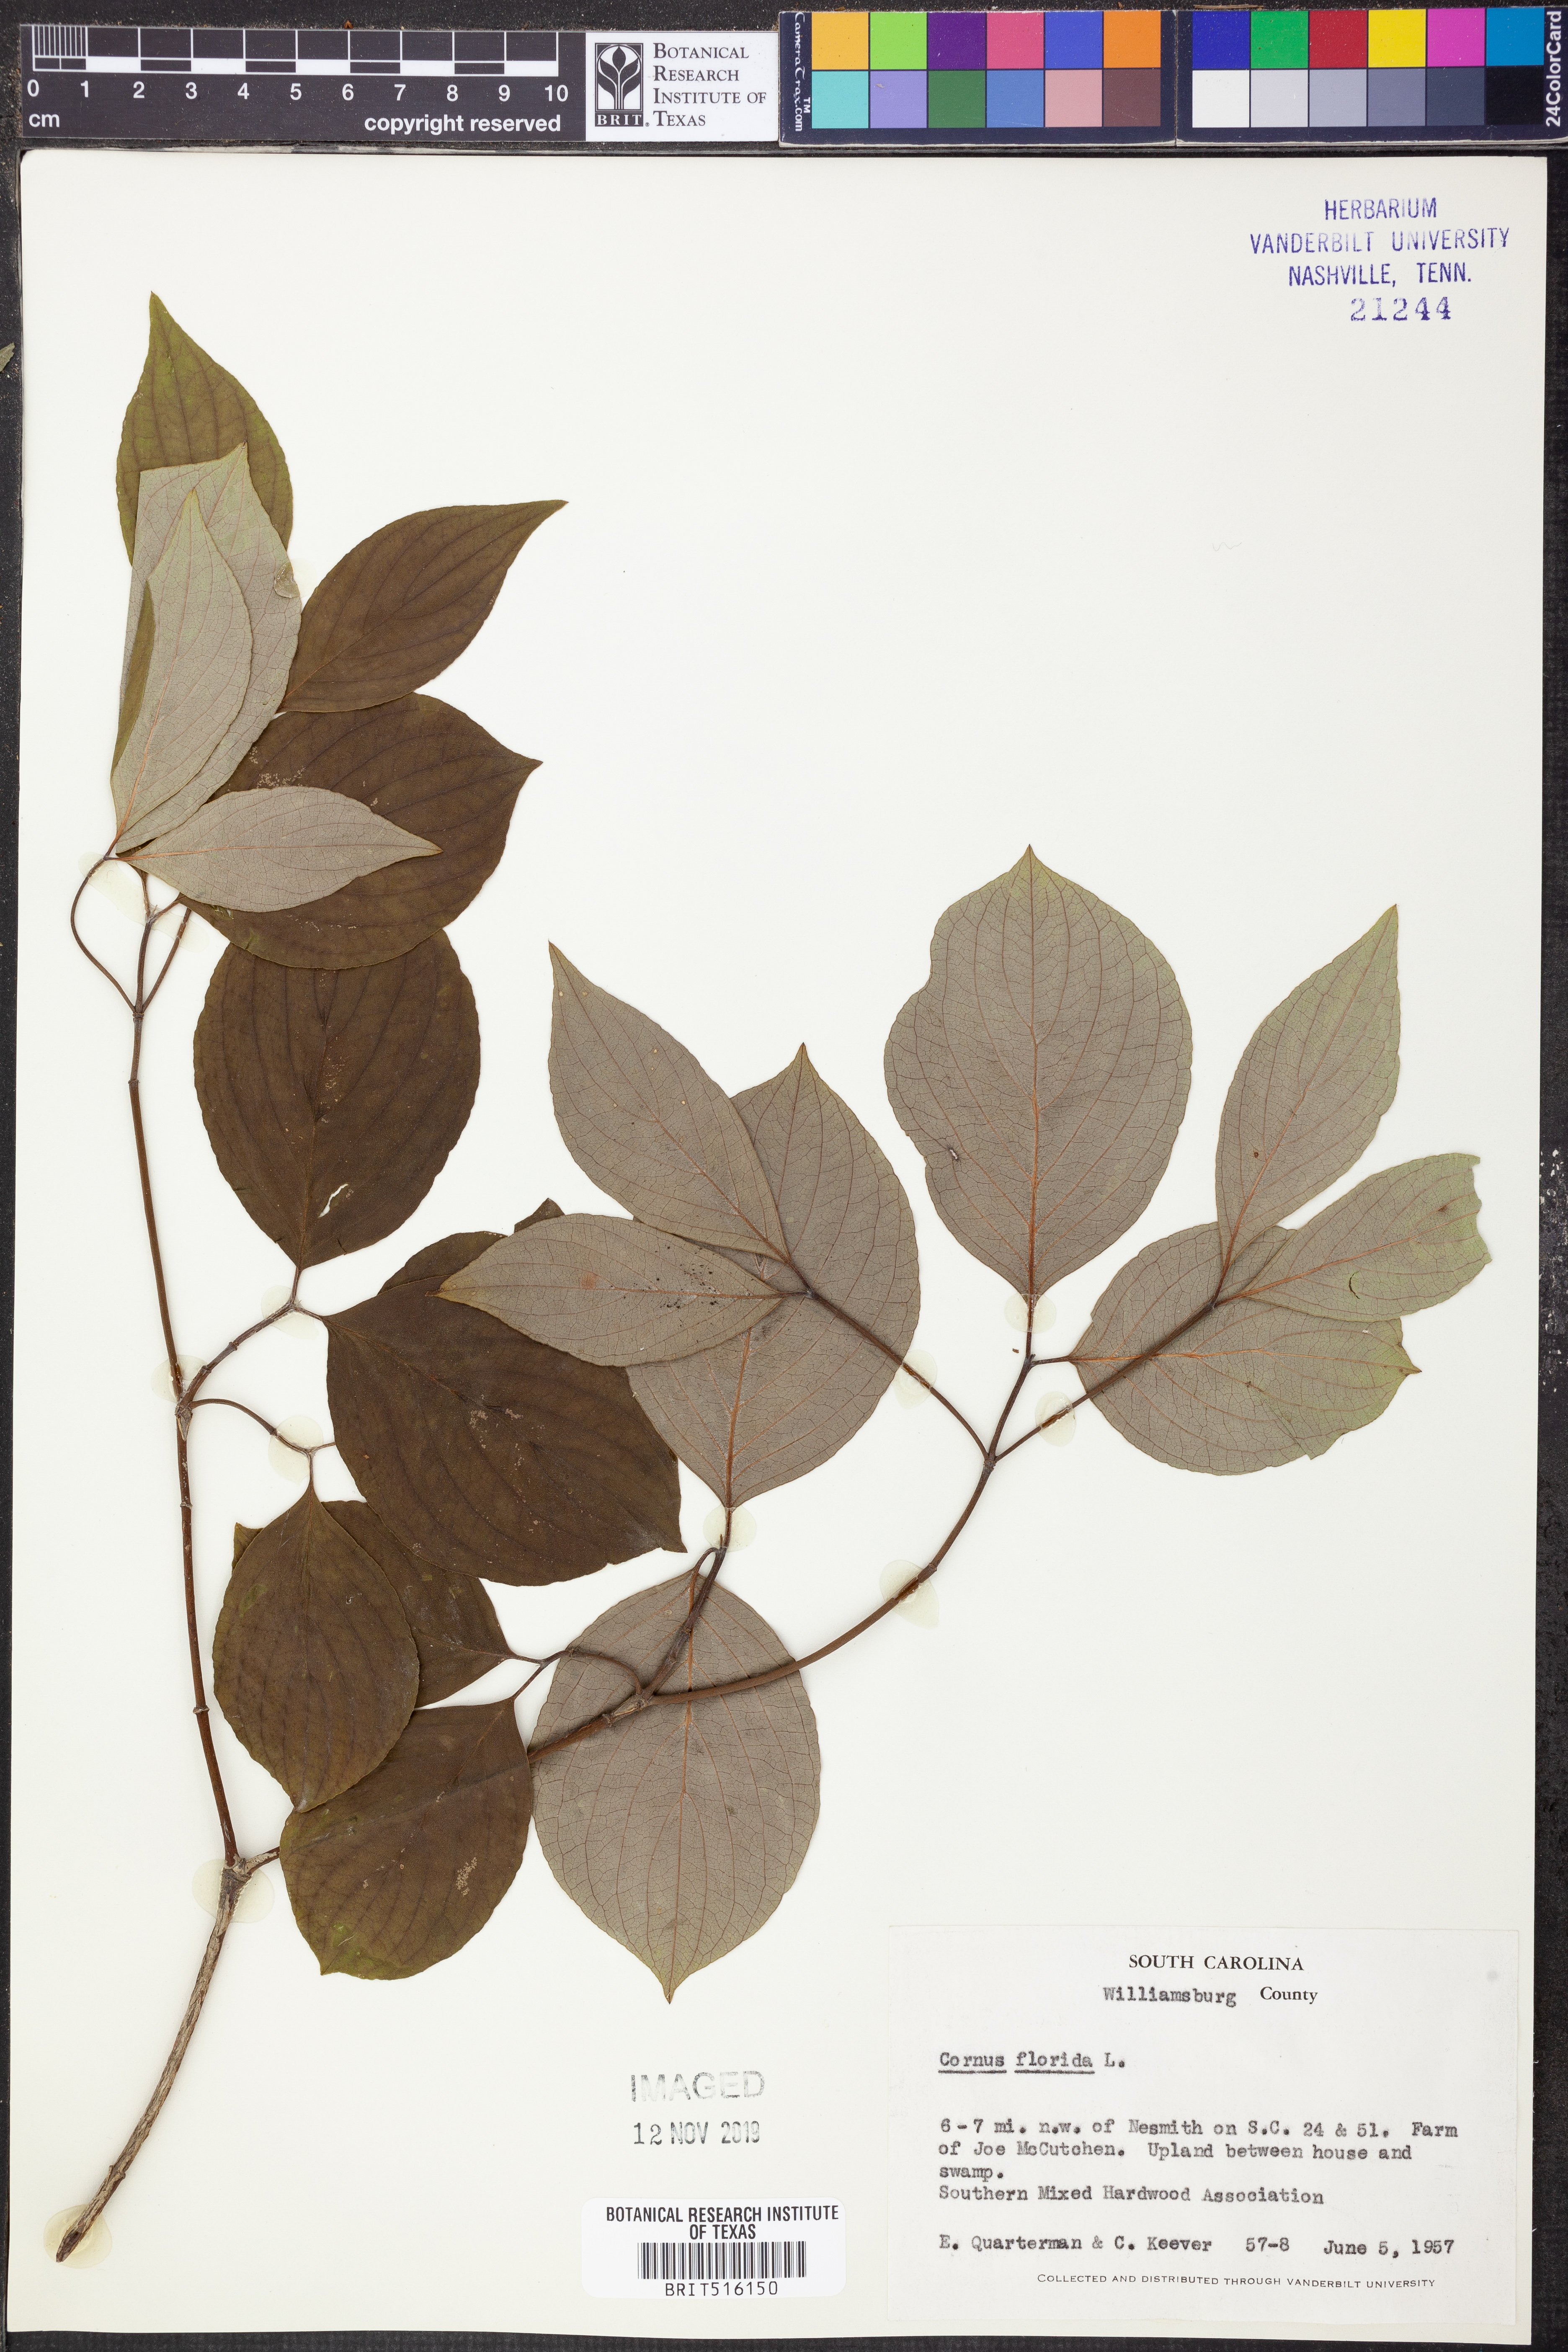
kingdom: Plantae
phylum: Tracheophyta
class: Magnoliopsida
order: Cornales
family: Cornaceae
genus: Cornus
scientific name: Cornus florida
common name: Flowering dogwood
